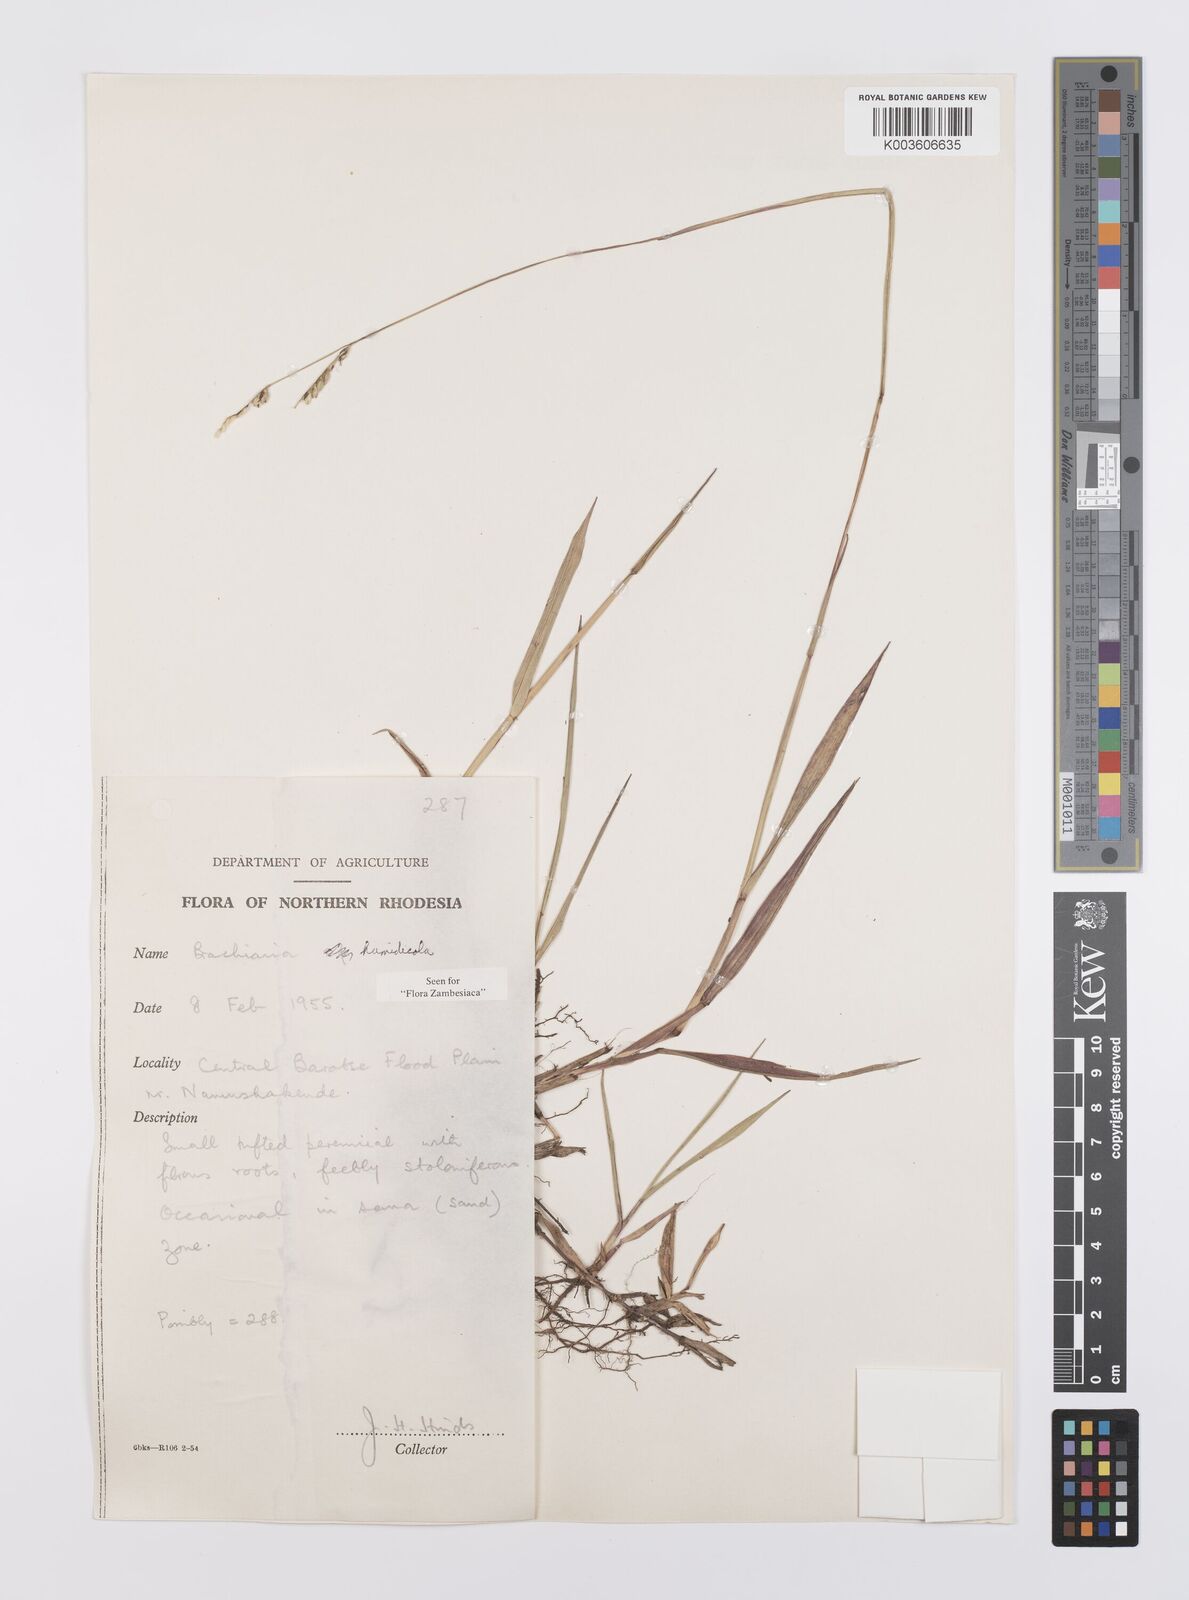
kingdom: Plantae
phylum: Tracheophyta
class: Liliopsida
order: Poales
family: Poaceae
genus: Urochloa
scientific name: Urochloa dictyoneura
